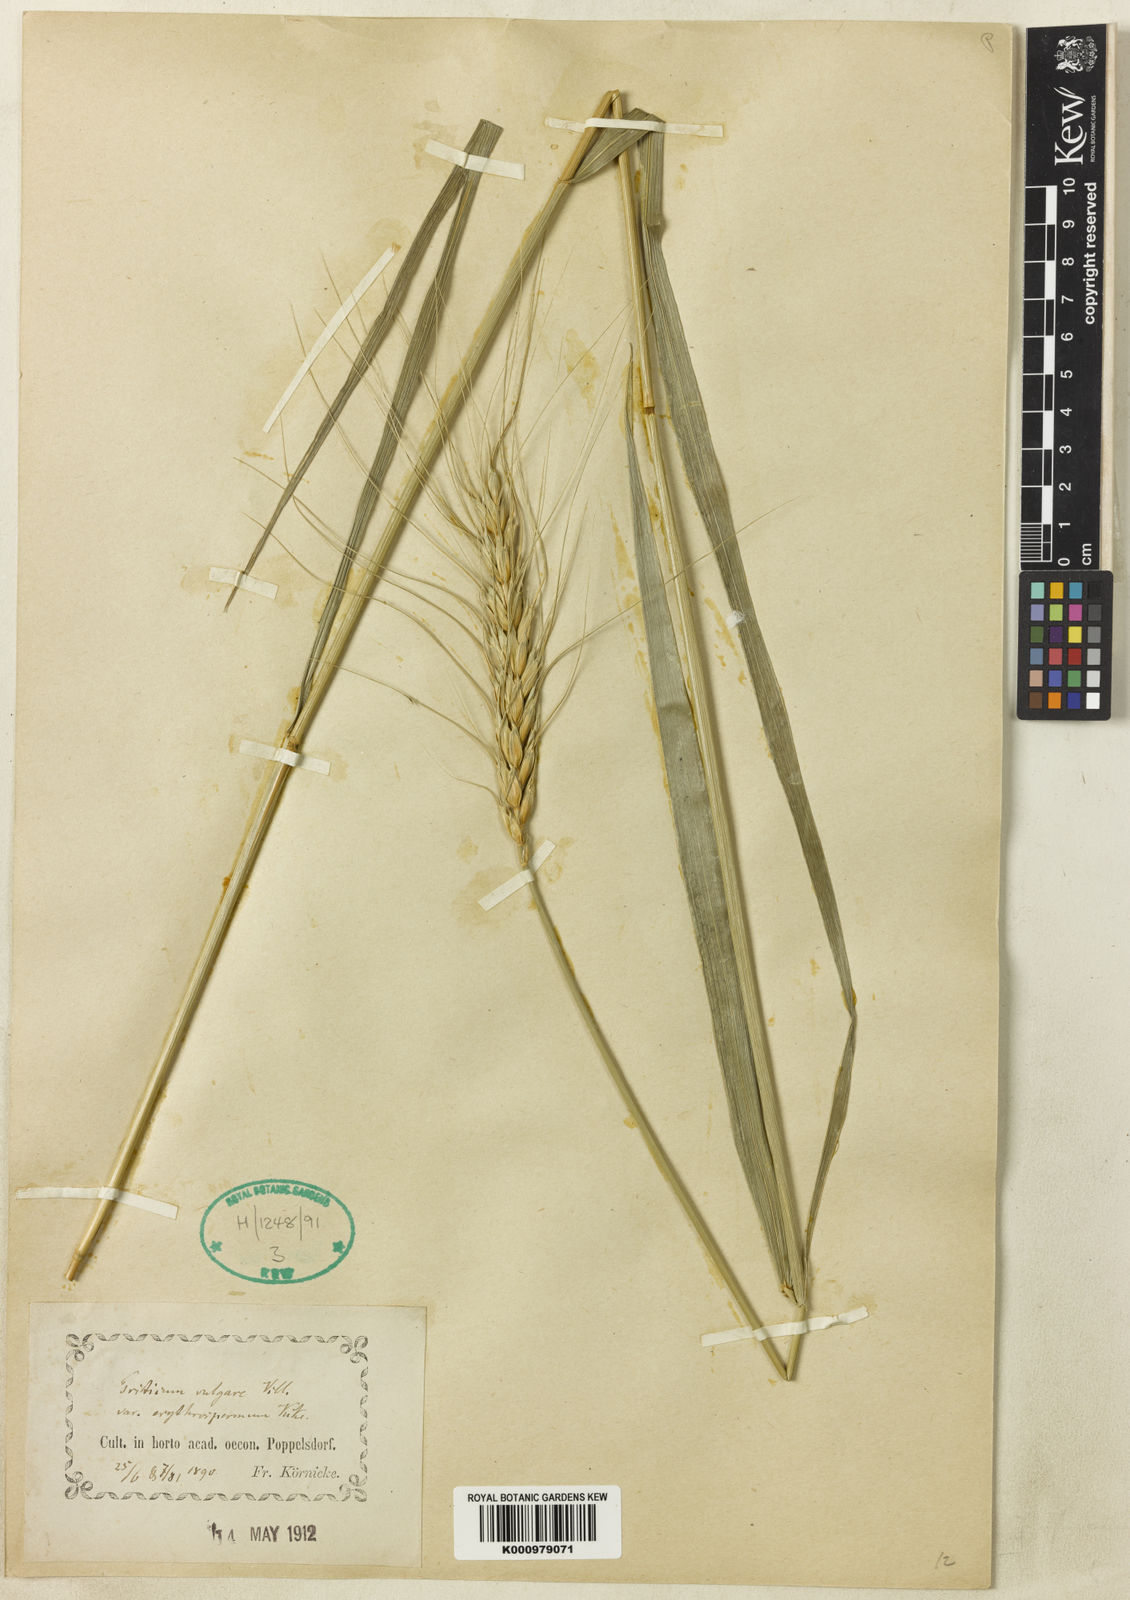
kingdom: Plantae
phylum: Tracheophyta
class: Liliopsida
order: Poales
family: Poaceae
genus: Triticum
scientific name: Triticum aestivum
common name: Common wheat
